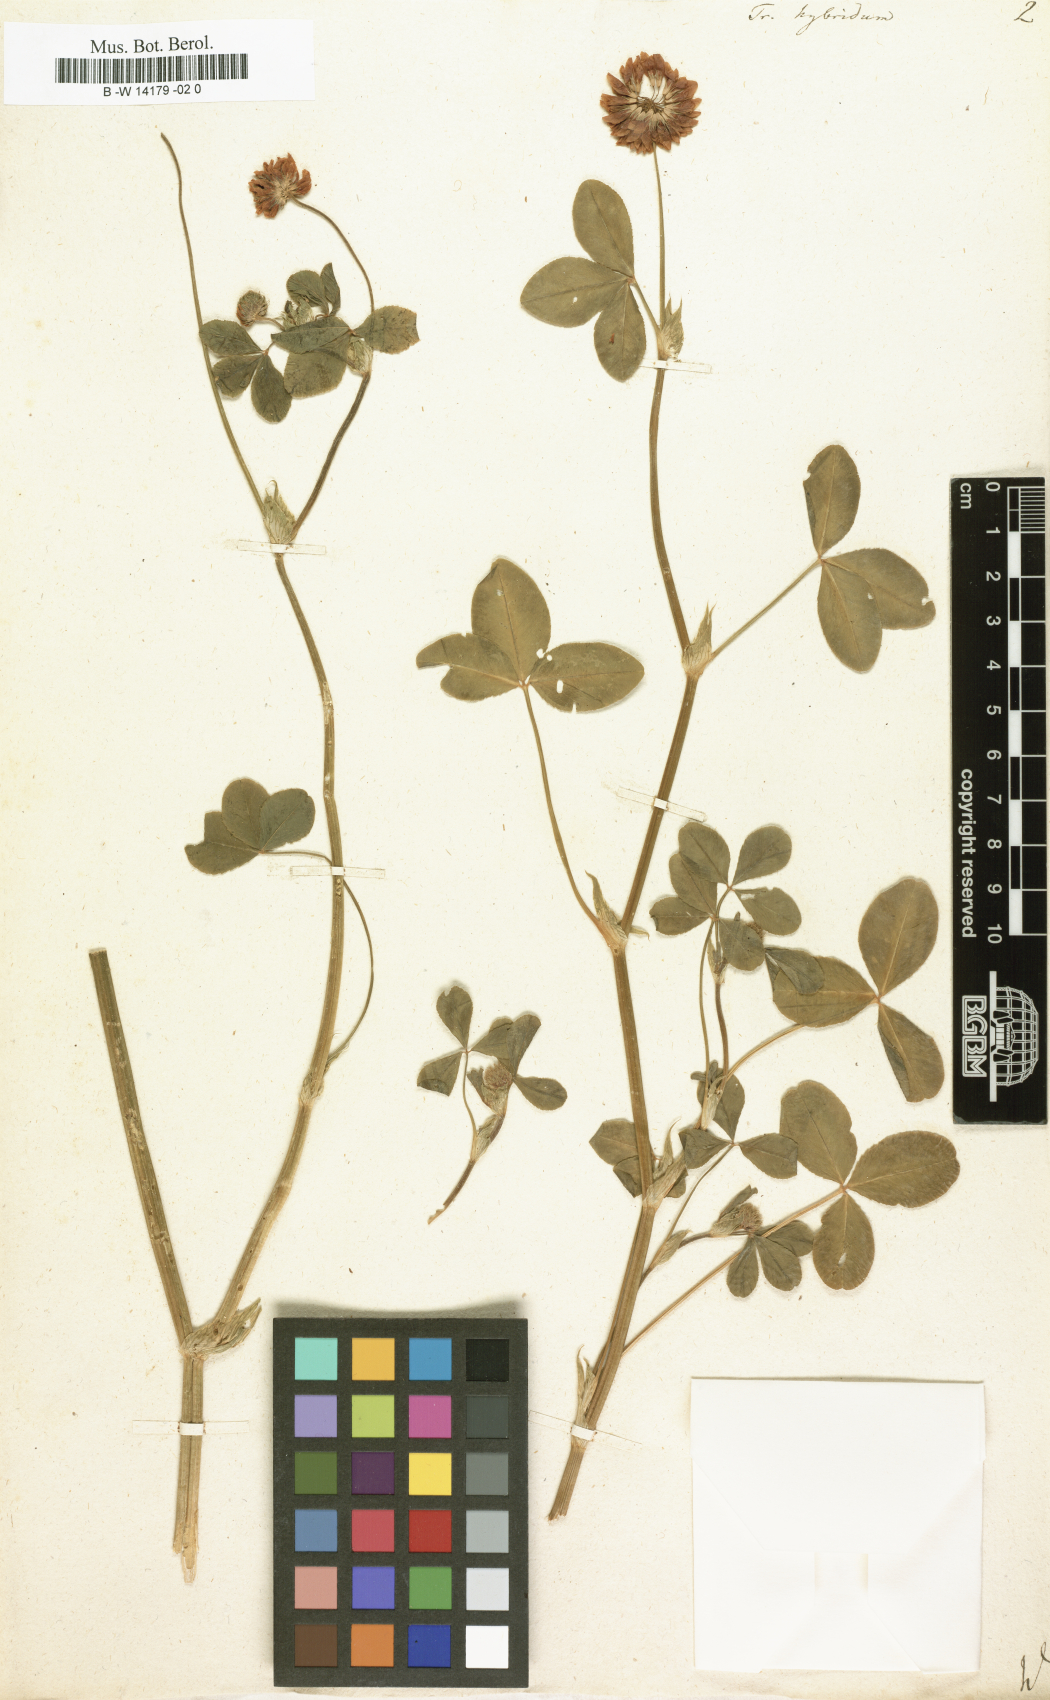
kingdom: Plantae
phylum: Tracheophyta
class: Magnoliopsida
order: Fabales
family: Fabaceae
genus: Trifolium
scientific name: Trifolium hybridum
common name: Alsike clover
